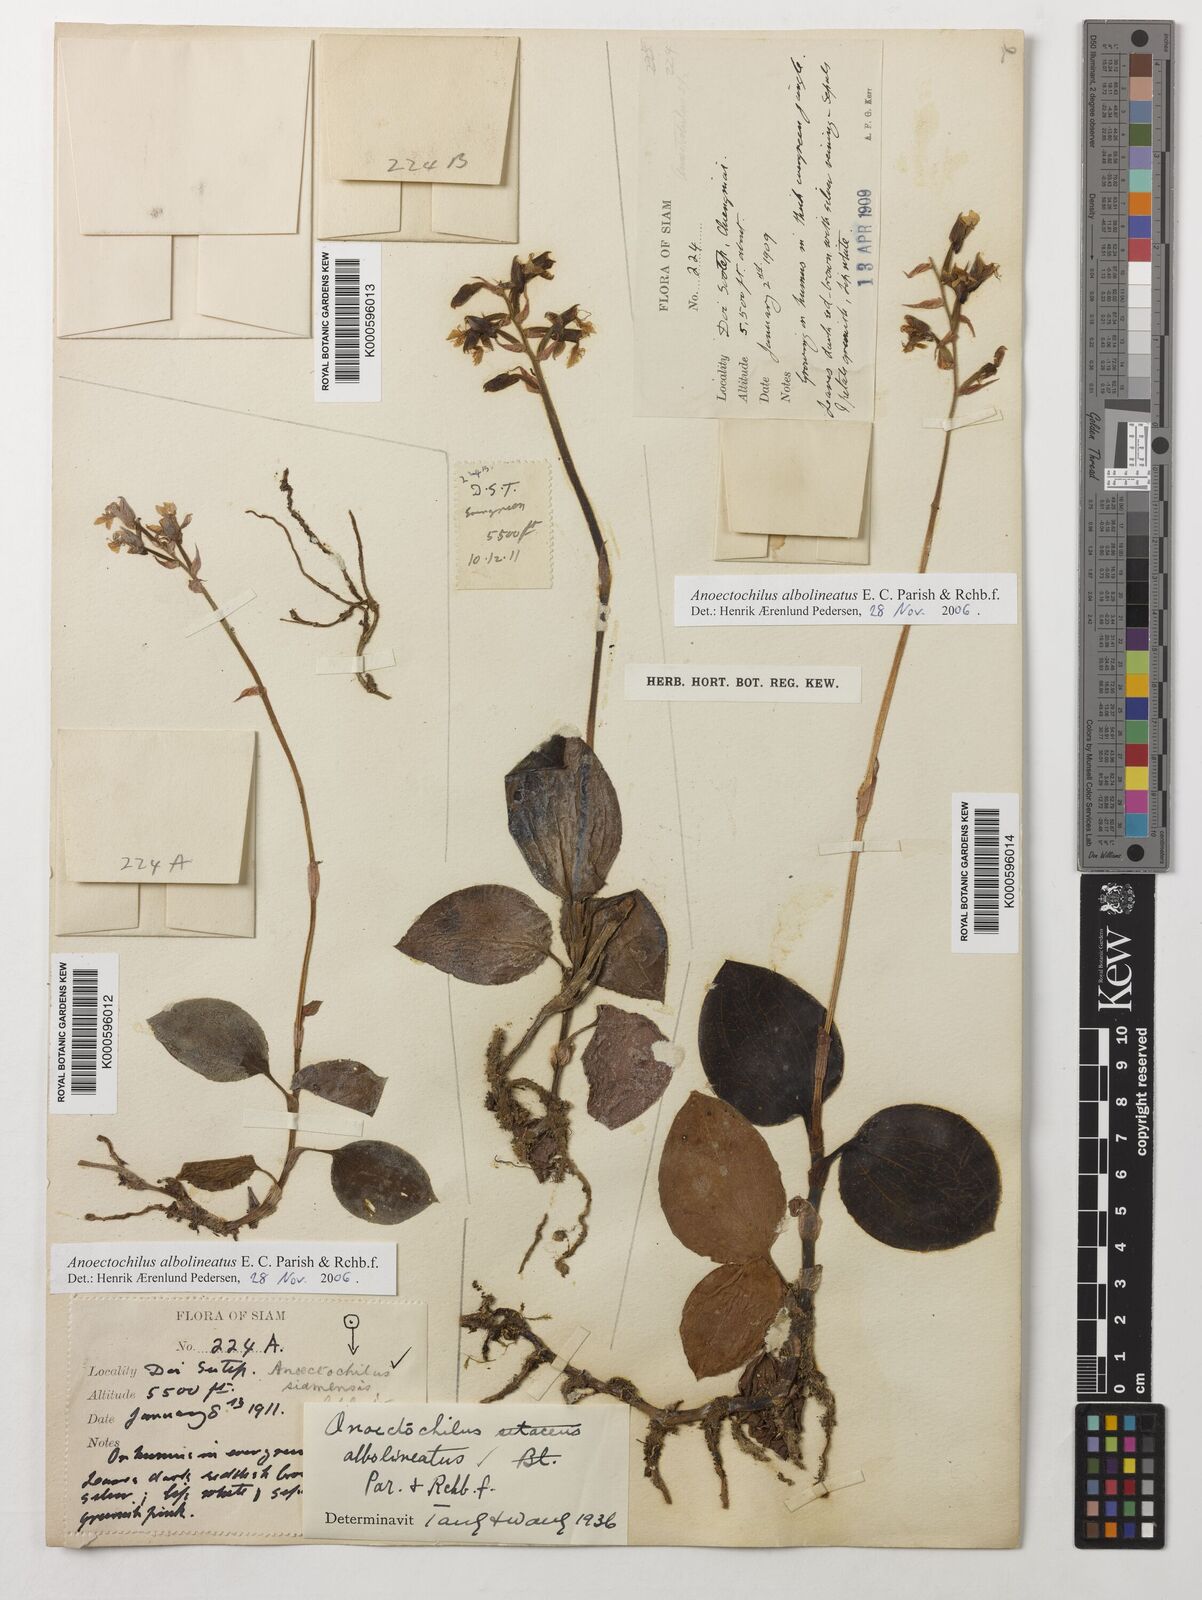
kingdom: Plantae
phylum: Tracheophyta
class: Liliopsida
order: Asparagales
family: Orchidaceae
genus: Anoectochilus
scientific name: Anoectochilus albolineatus
